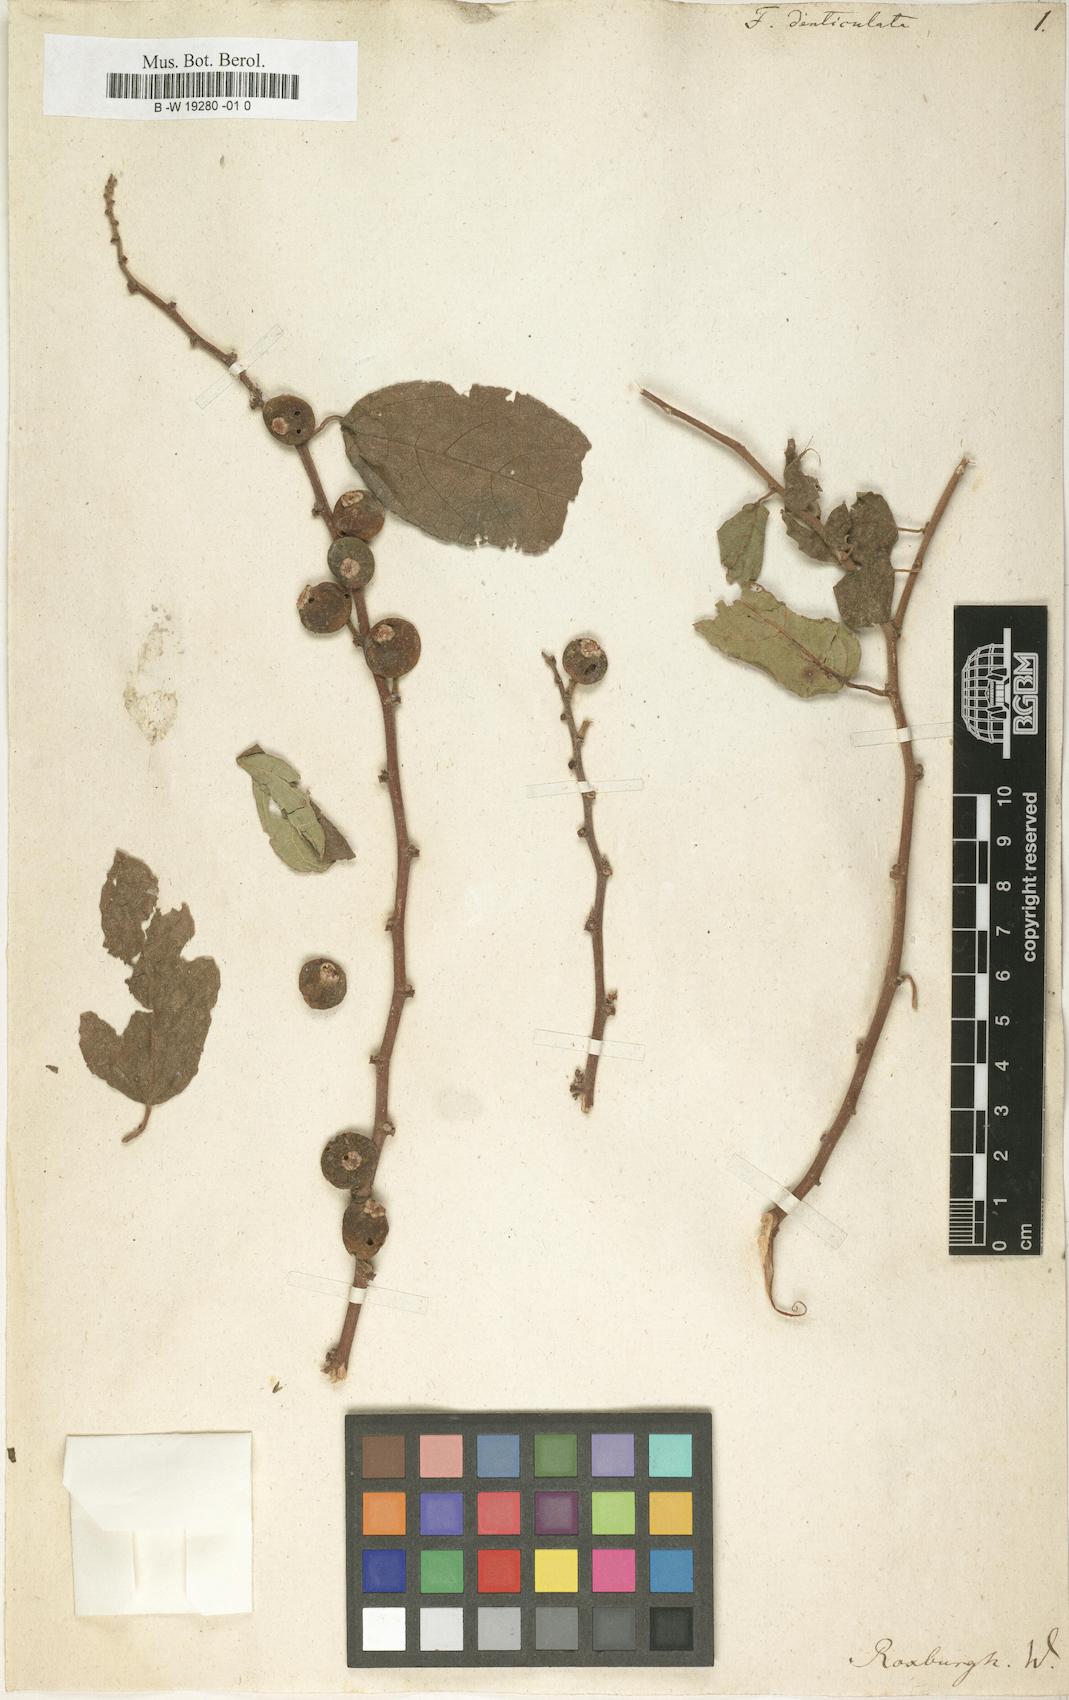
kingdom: Plantae
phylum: Tracheophyta
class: Magnoliopsida
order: Rosales
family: Moraceae
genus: Ficus
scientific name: Ficus heterophylla
